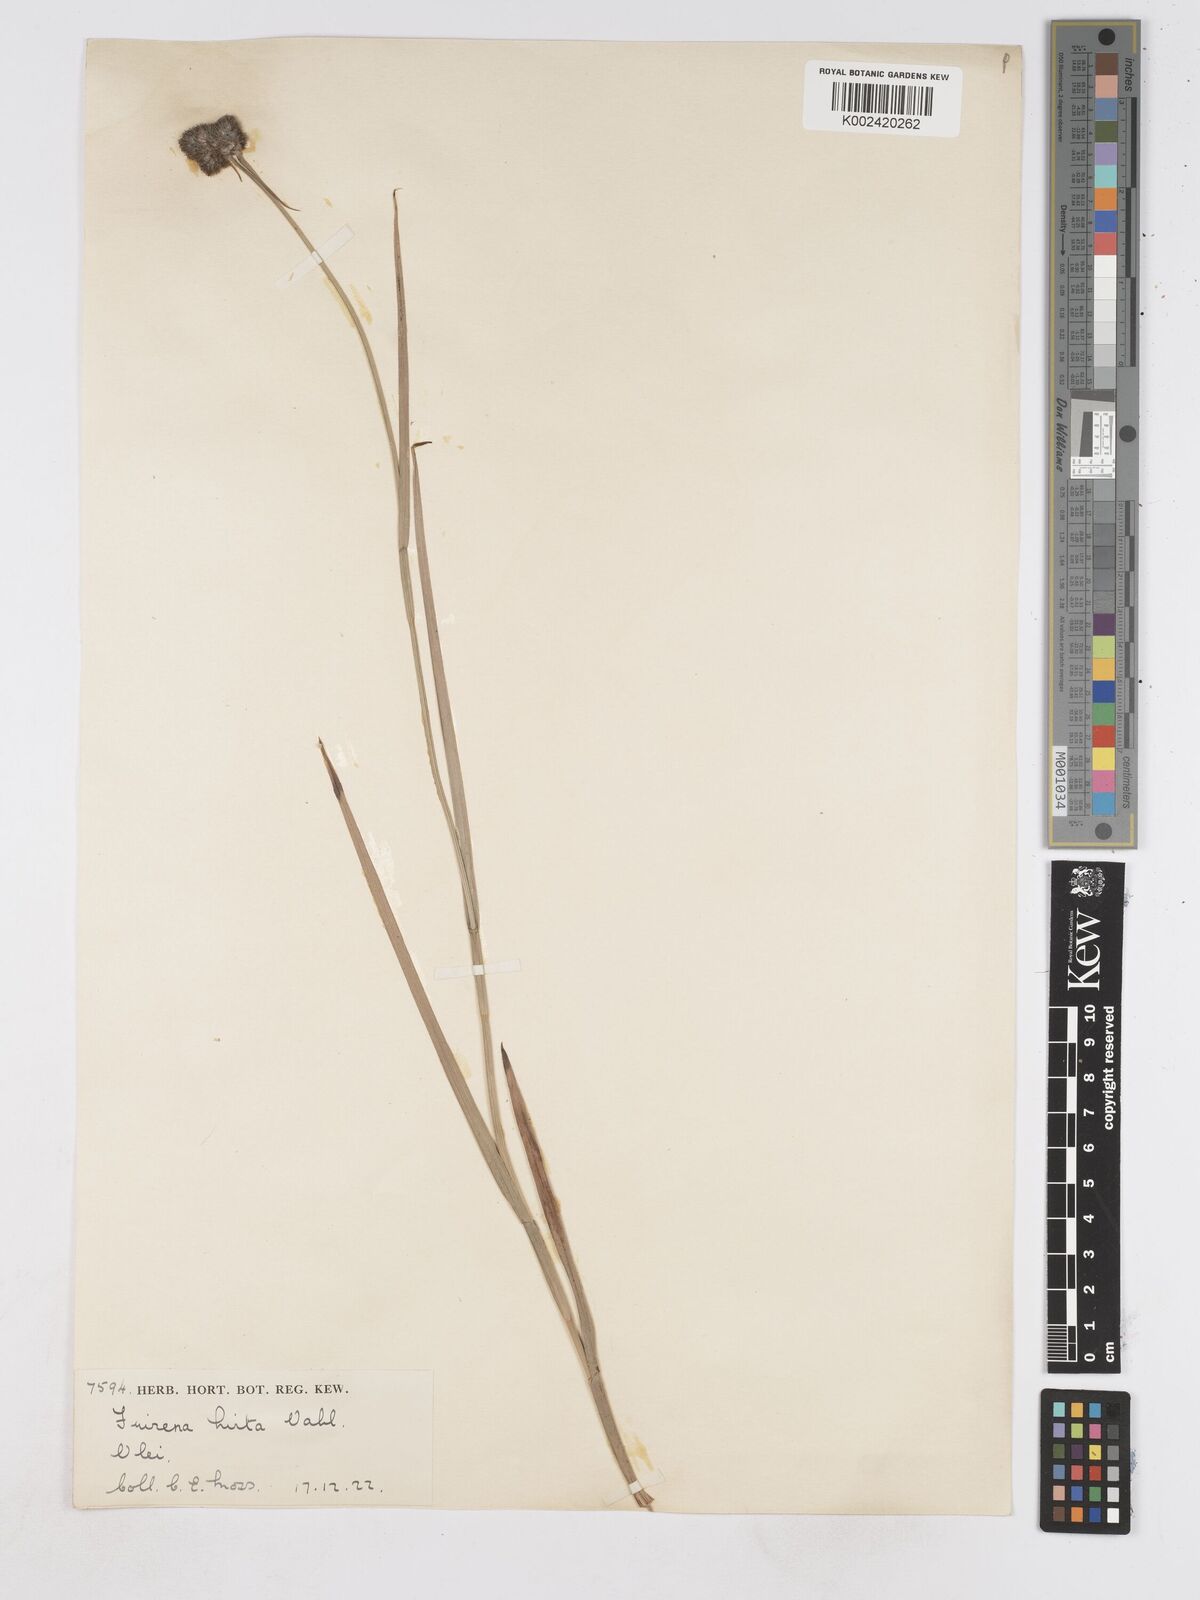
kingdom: Plantae
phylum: Tracheophyta
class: Liliopsida
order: Poales
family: Cyperaceae
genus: Fuirena
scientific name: Fuirena hirsuta
